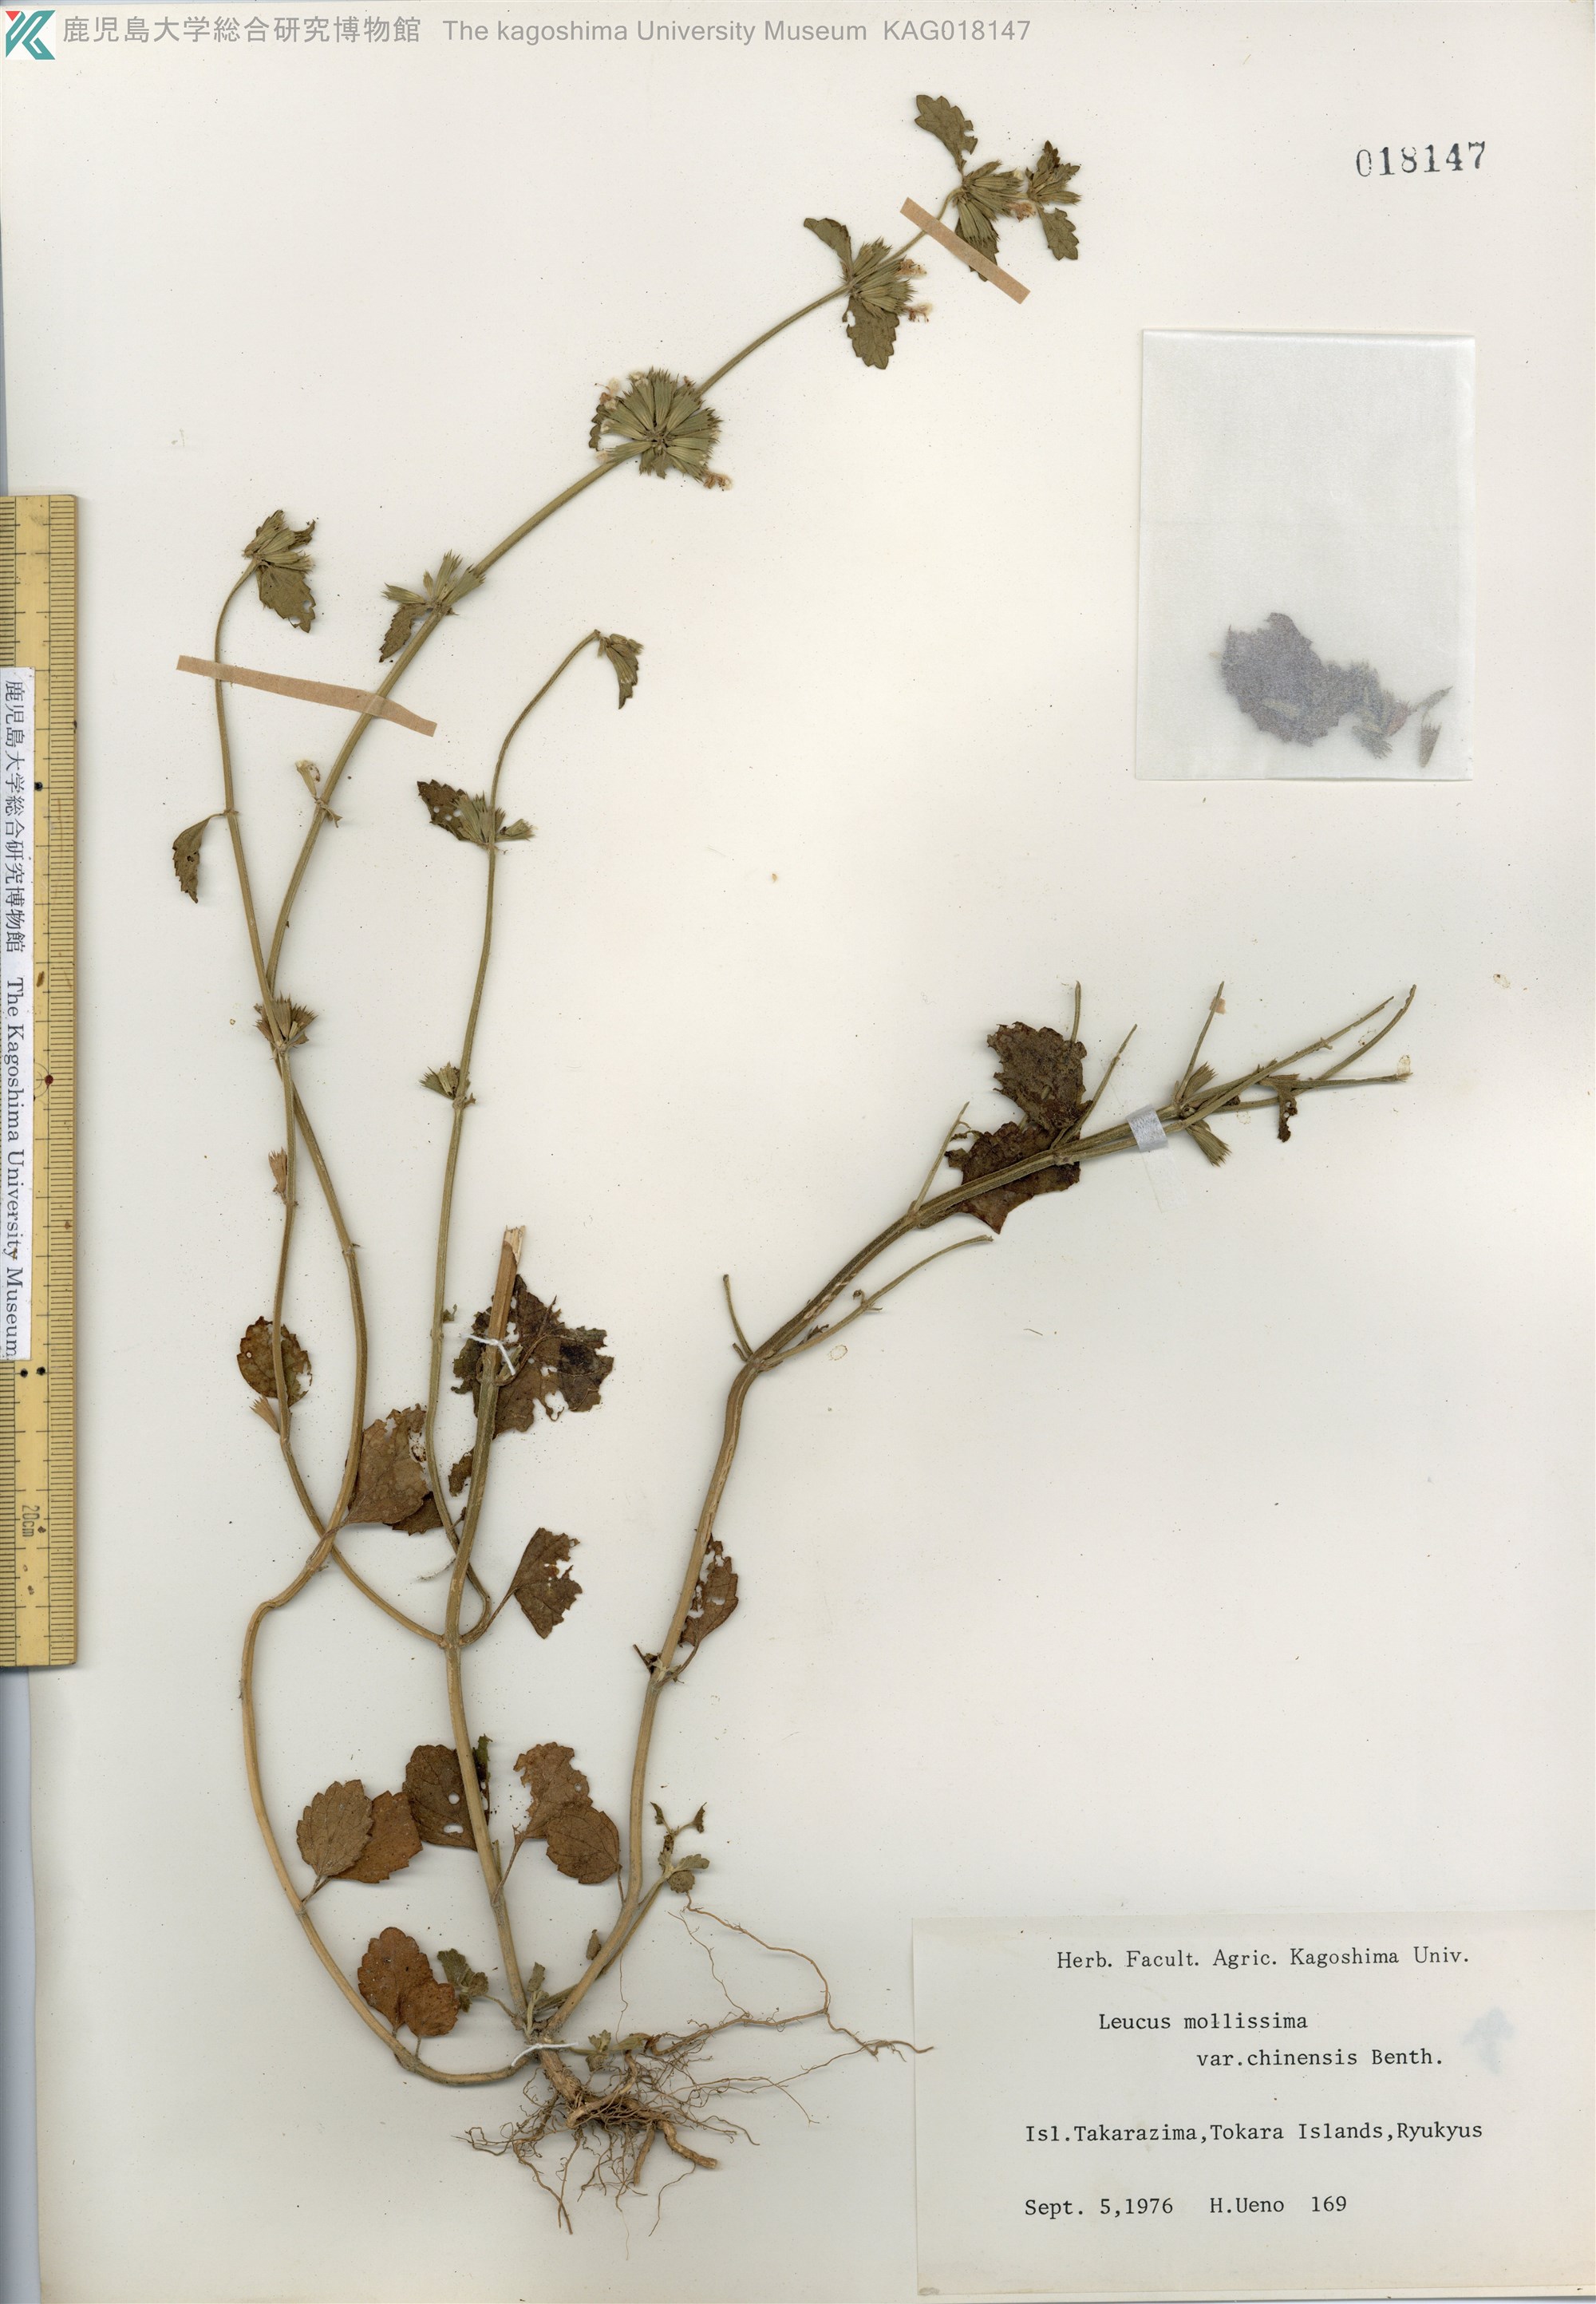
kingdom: Plantae
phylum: Tracheophyta
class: Magnoliopsida
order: Lamiales
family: Lamiaceae
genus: Leucas
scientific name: Leucas chinensis
